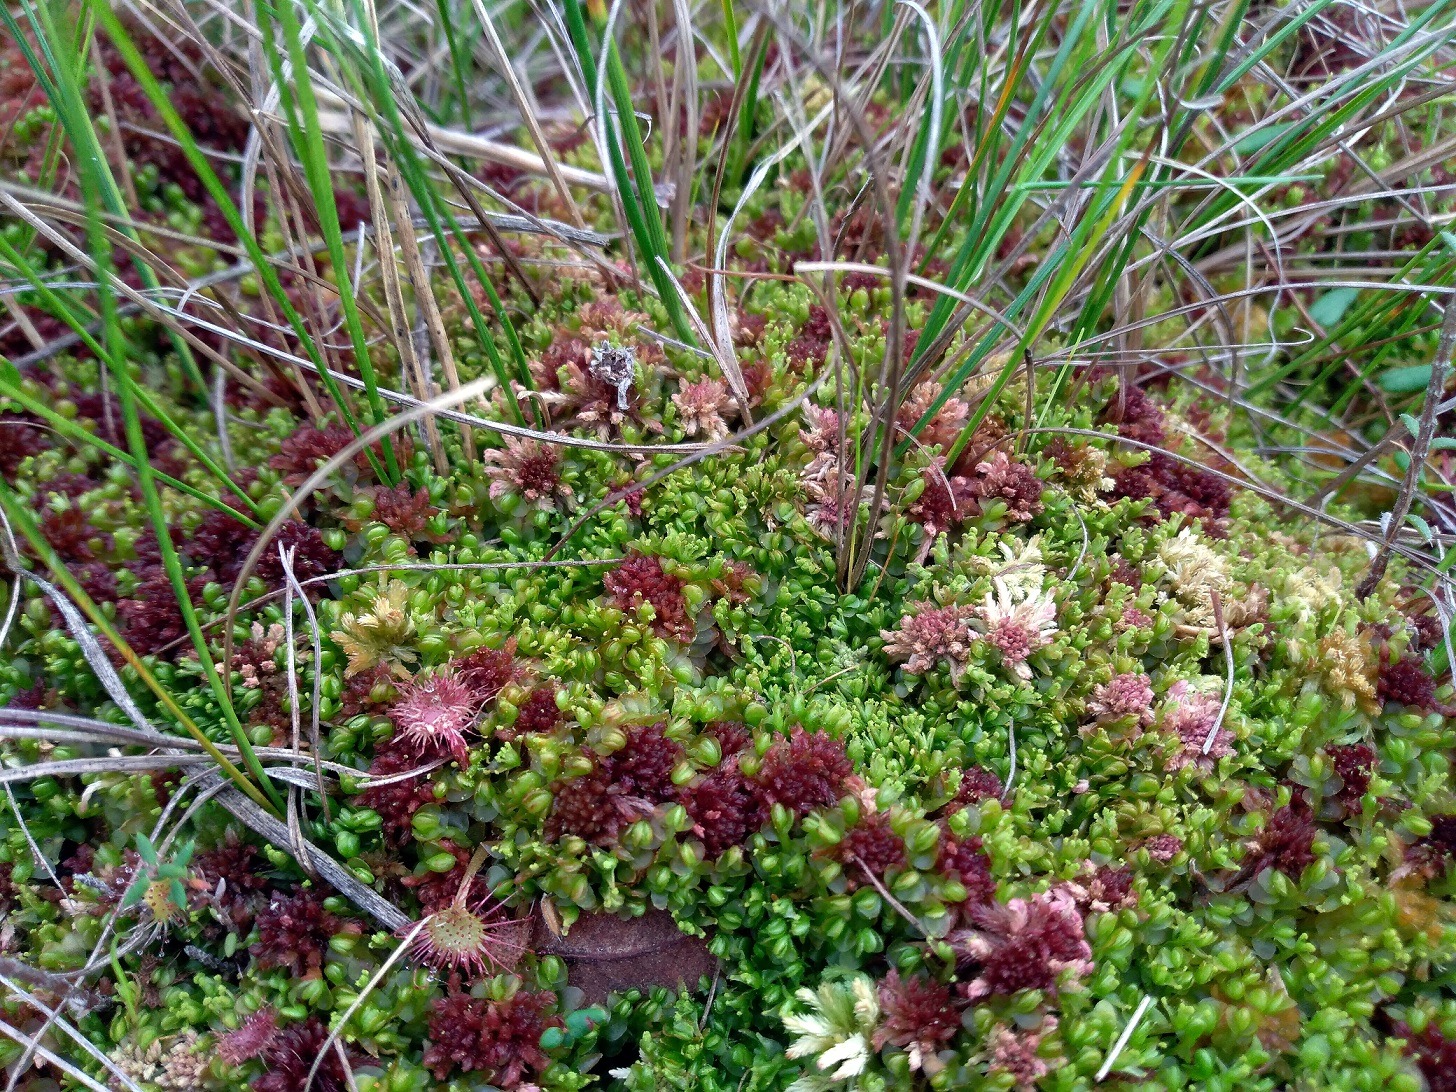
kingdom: Plantae
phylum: Marchantiophyta
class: Jungermanniopsida
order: Jungermanniales
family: Myliaceae
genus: Mylia
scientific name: Mylia anomala
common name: Mose-fladmund
